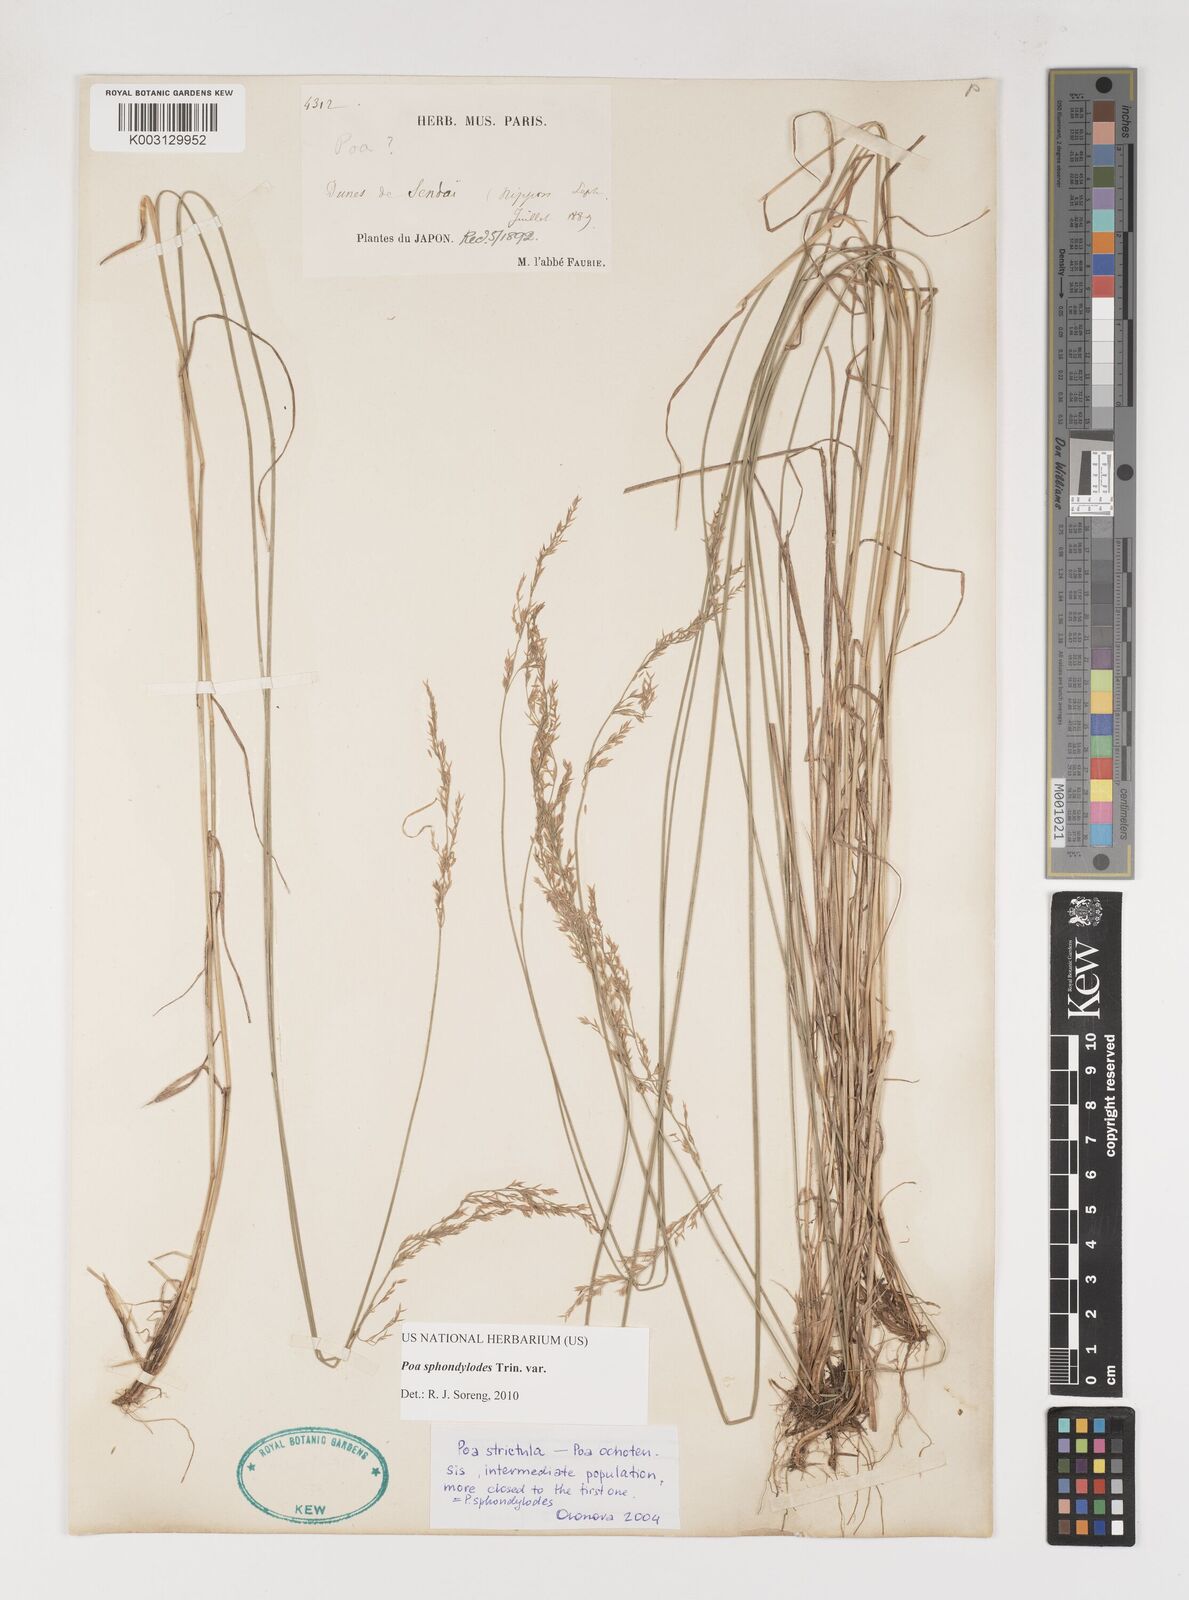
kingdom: Plantae
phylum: Tracheophyta
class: Liliopsida
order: Poales
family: Poaceae
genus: Poa
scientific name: Poa sphondylodes
